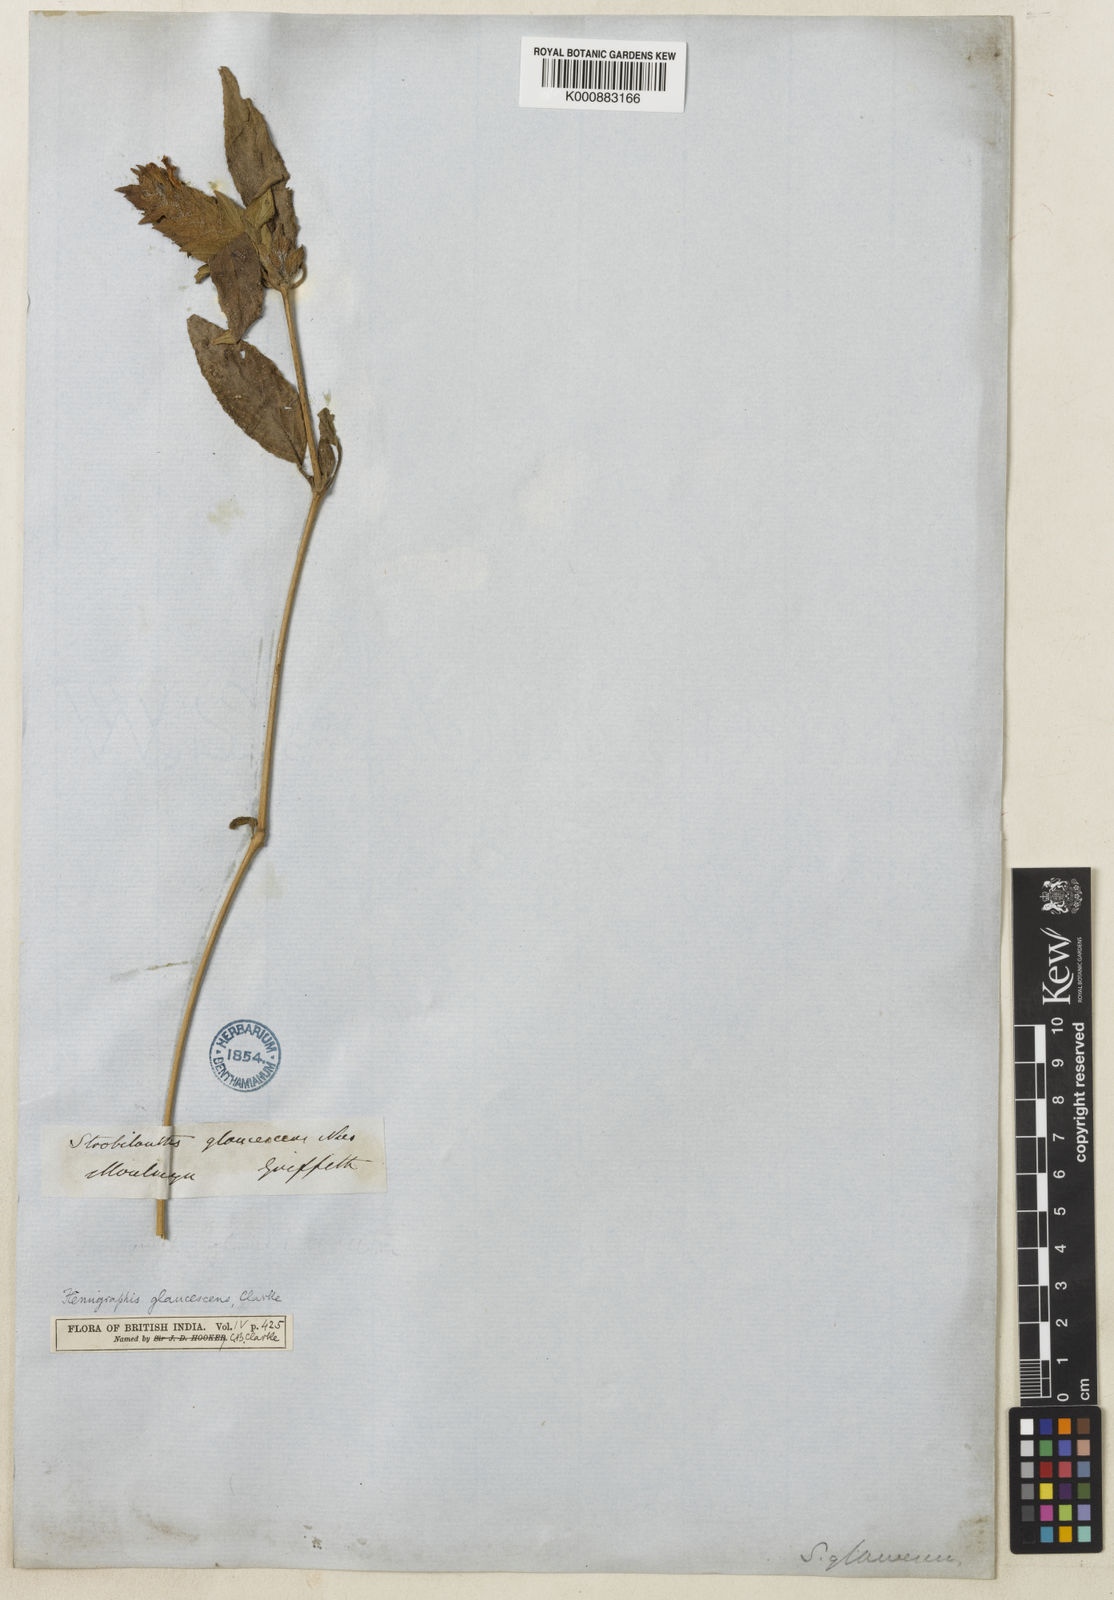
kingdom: Plantae
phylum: Tracheophyta
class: Magnoliopsida
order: Lamiales
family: Acanthaceae
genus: Strobilanthes
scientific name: Strobilanthes glaucescens
